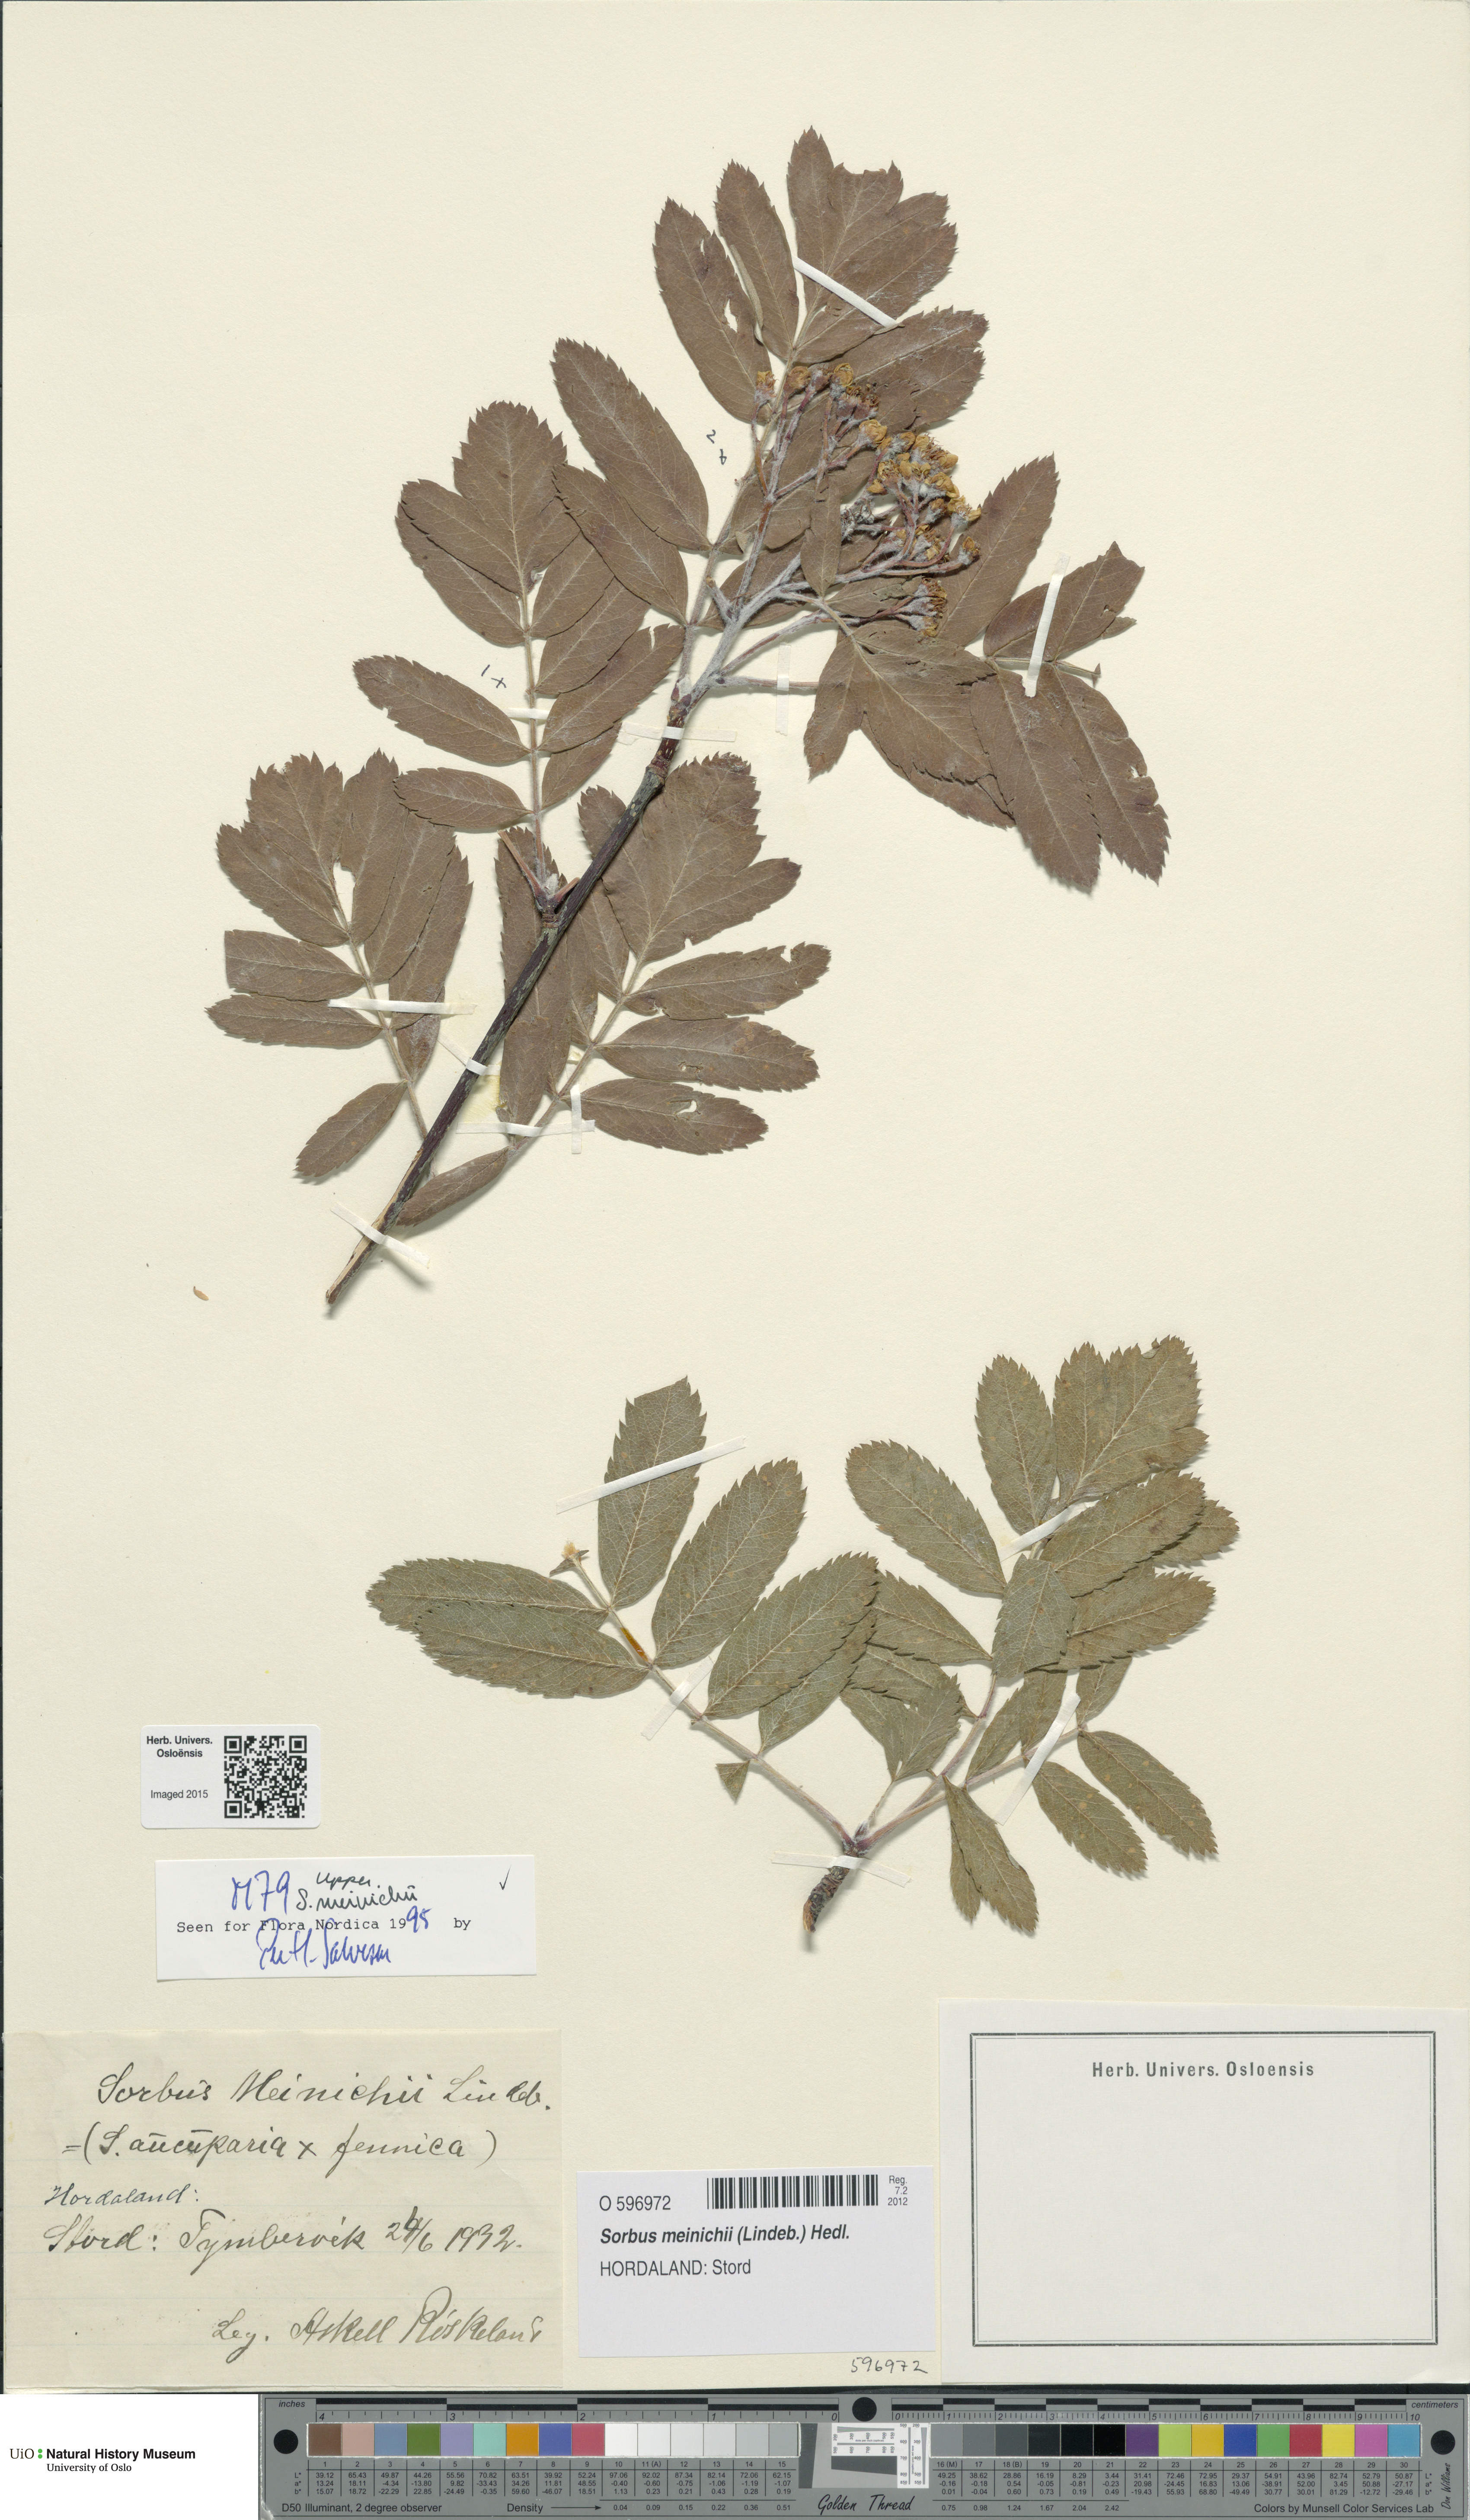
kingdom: Plantae
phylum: Tracheophyta
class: Magnoliopsida
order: Rosales
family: Rosaceae
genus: Hedlundia
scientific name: Hedlundia meinichii
